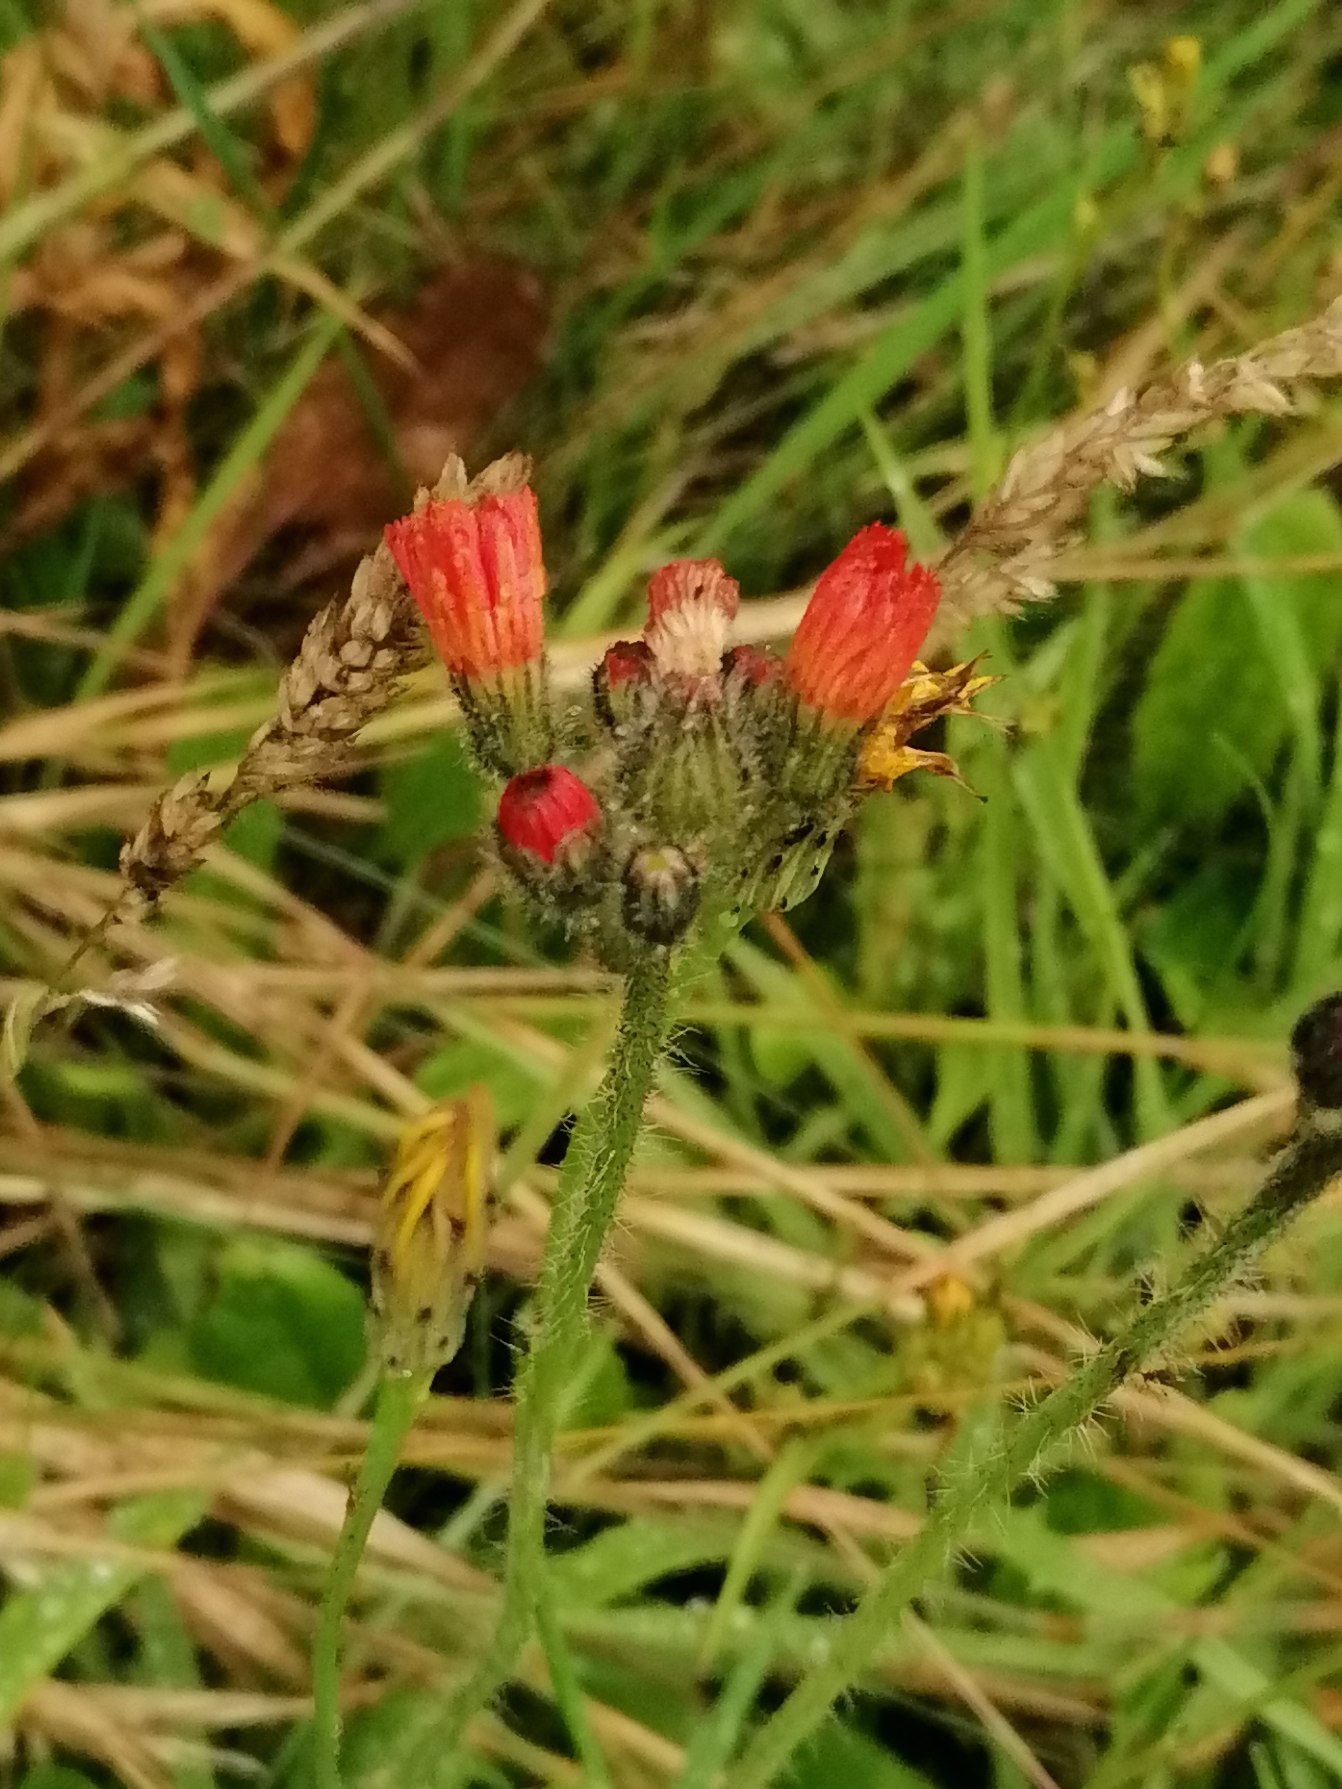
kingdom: Plantae
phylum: Tracheophyta
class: Magnoliopsida
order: Asterales
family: Asteraceae
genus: Pilosella
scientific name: Pilosella aurantiaca
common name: Pomerans-høgeurt
